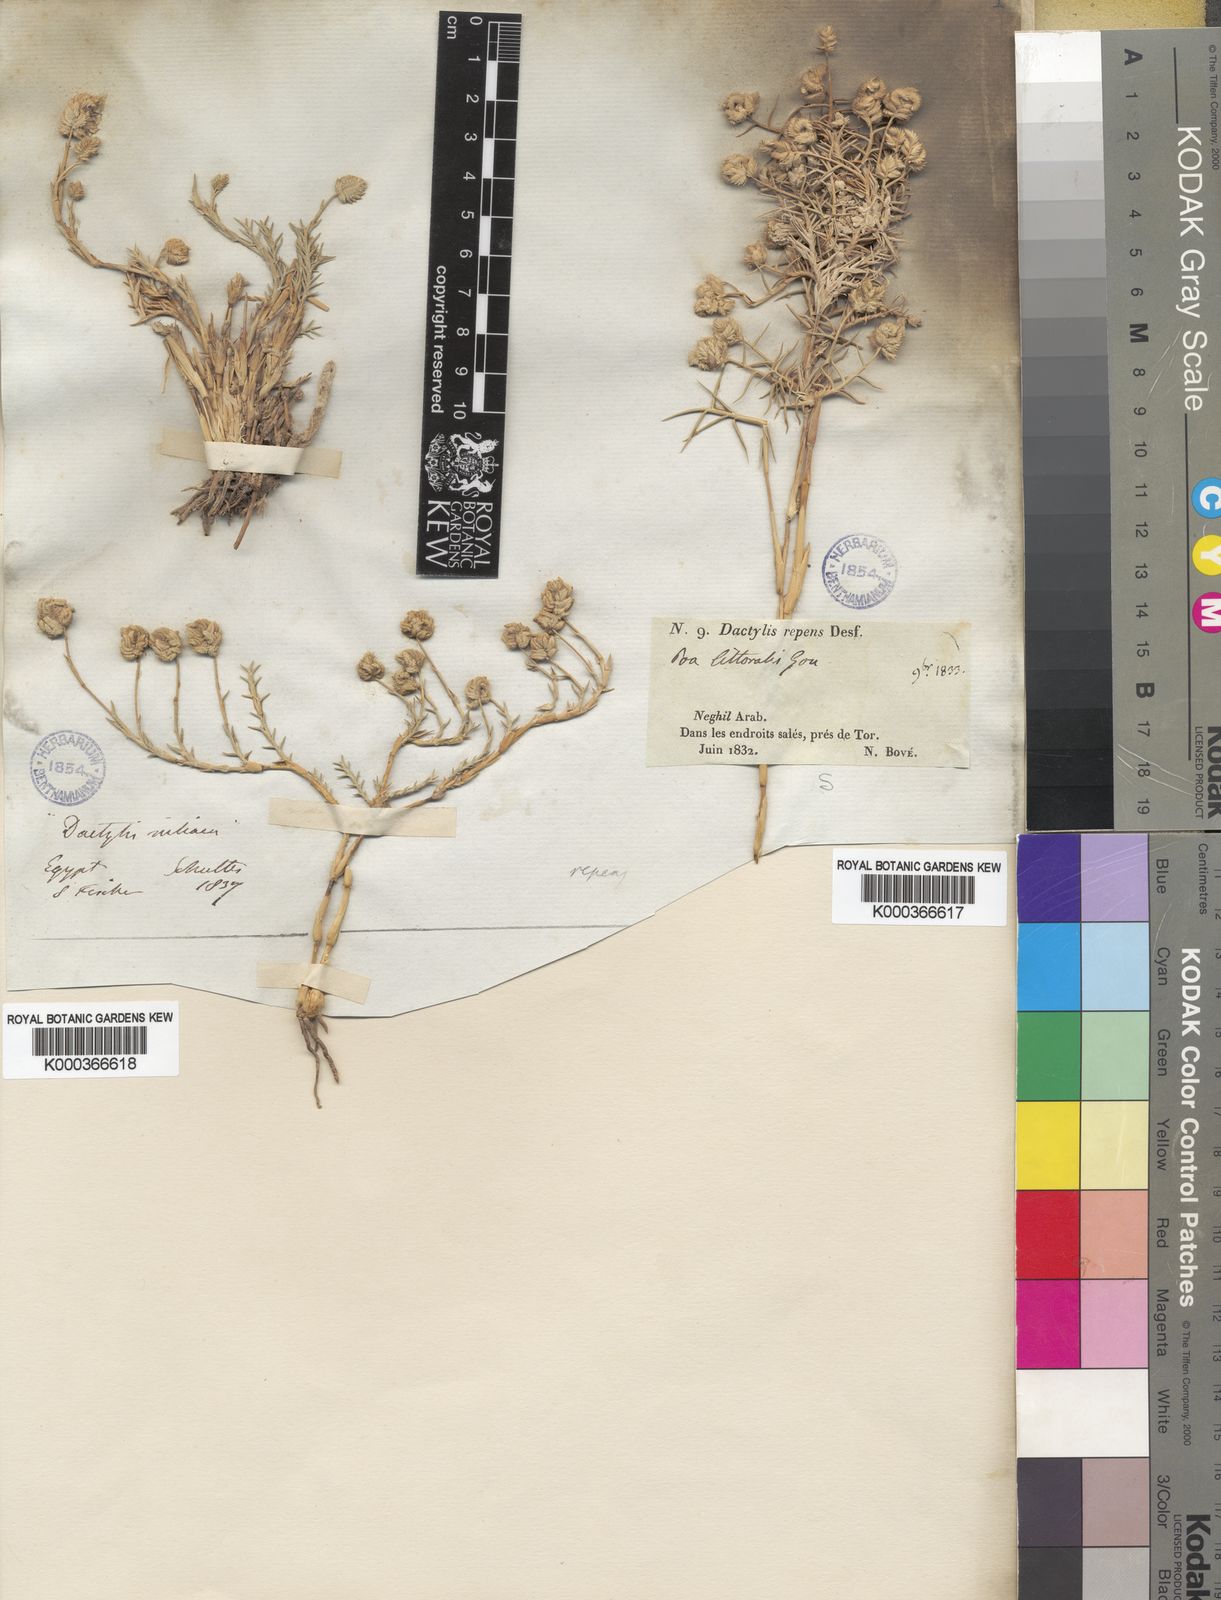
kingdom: Plantae
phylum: Tracheophyta
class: Liliopsida
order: Poales
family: Poaceae
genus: Aeluropus
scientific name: Aeluropus lagopoides
